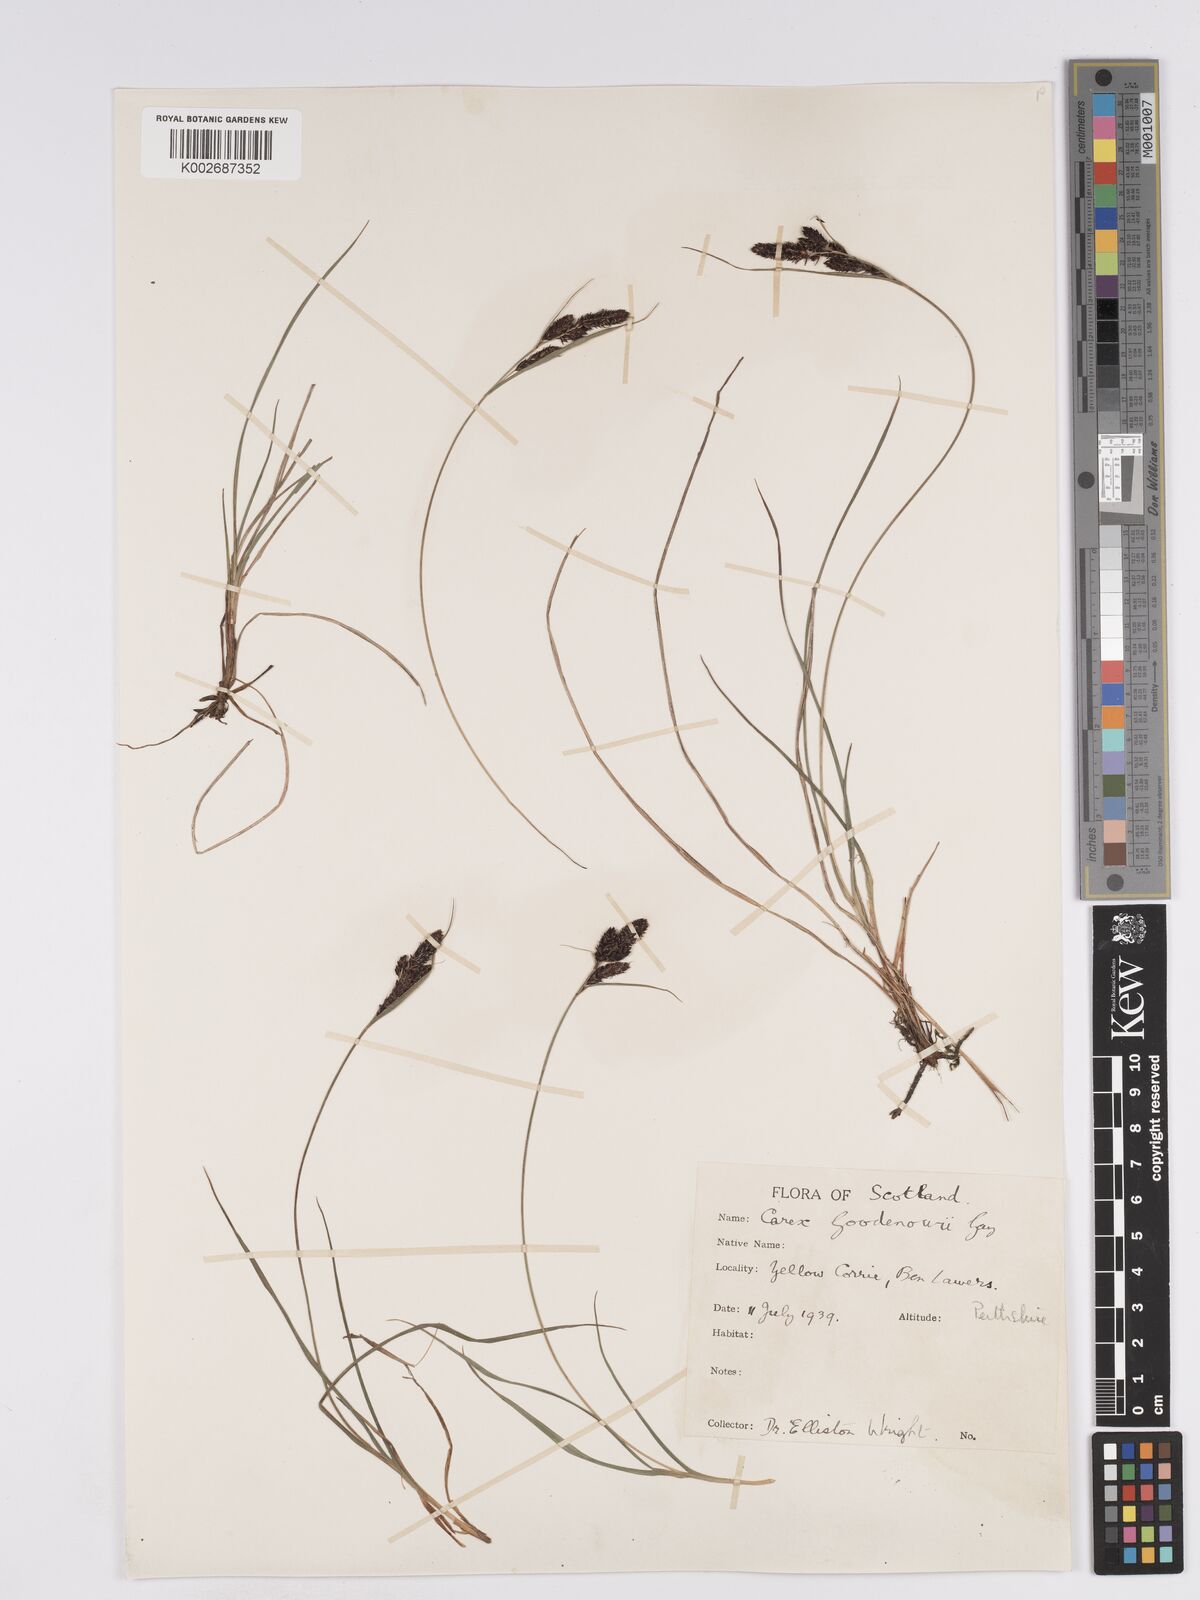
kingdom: Plantae
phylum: Tracheophyta
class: Liliopsida
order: Poales
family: Cyperaceae
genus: Carex
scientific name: Carex nigra
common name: Common sedge
